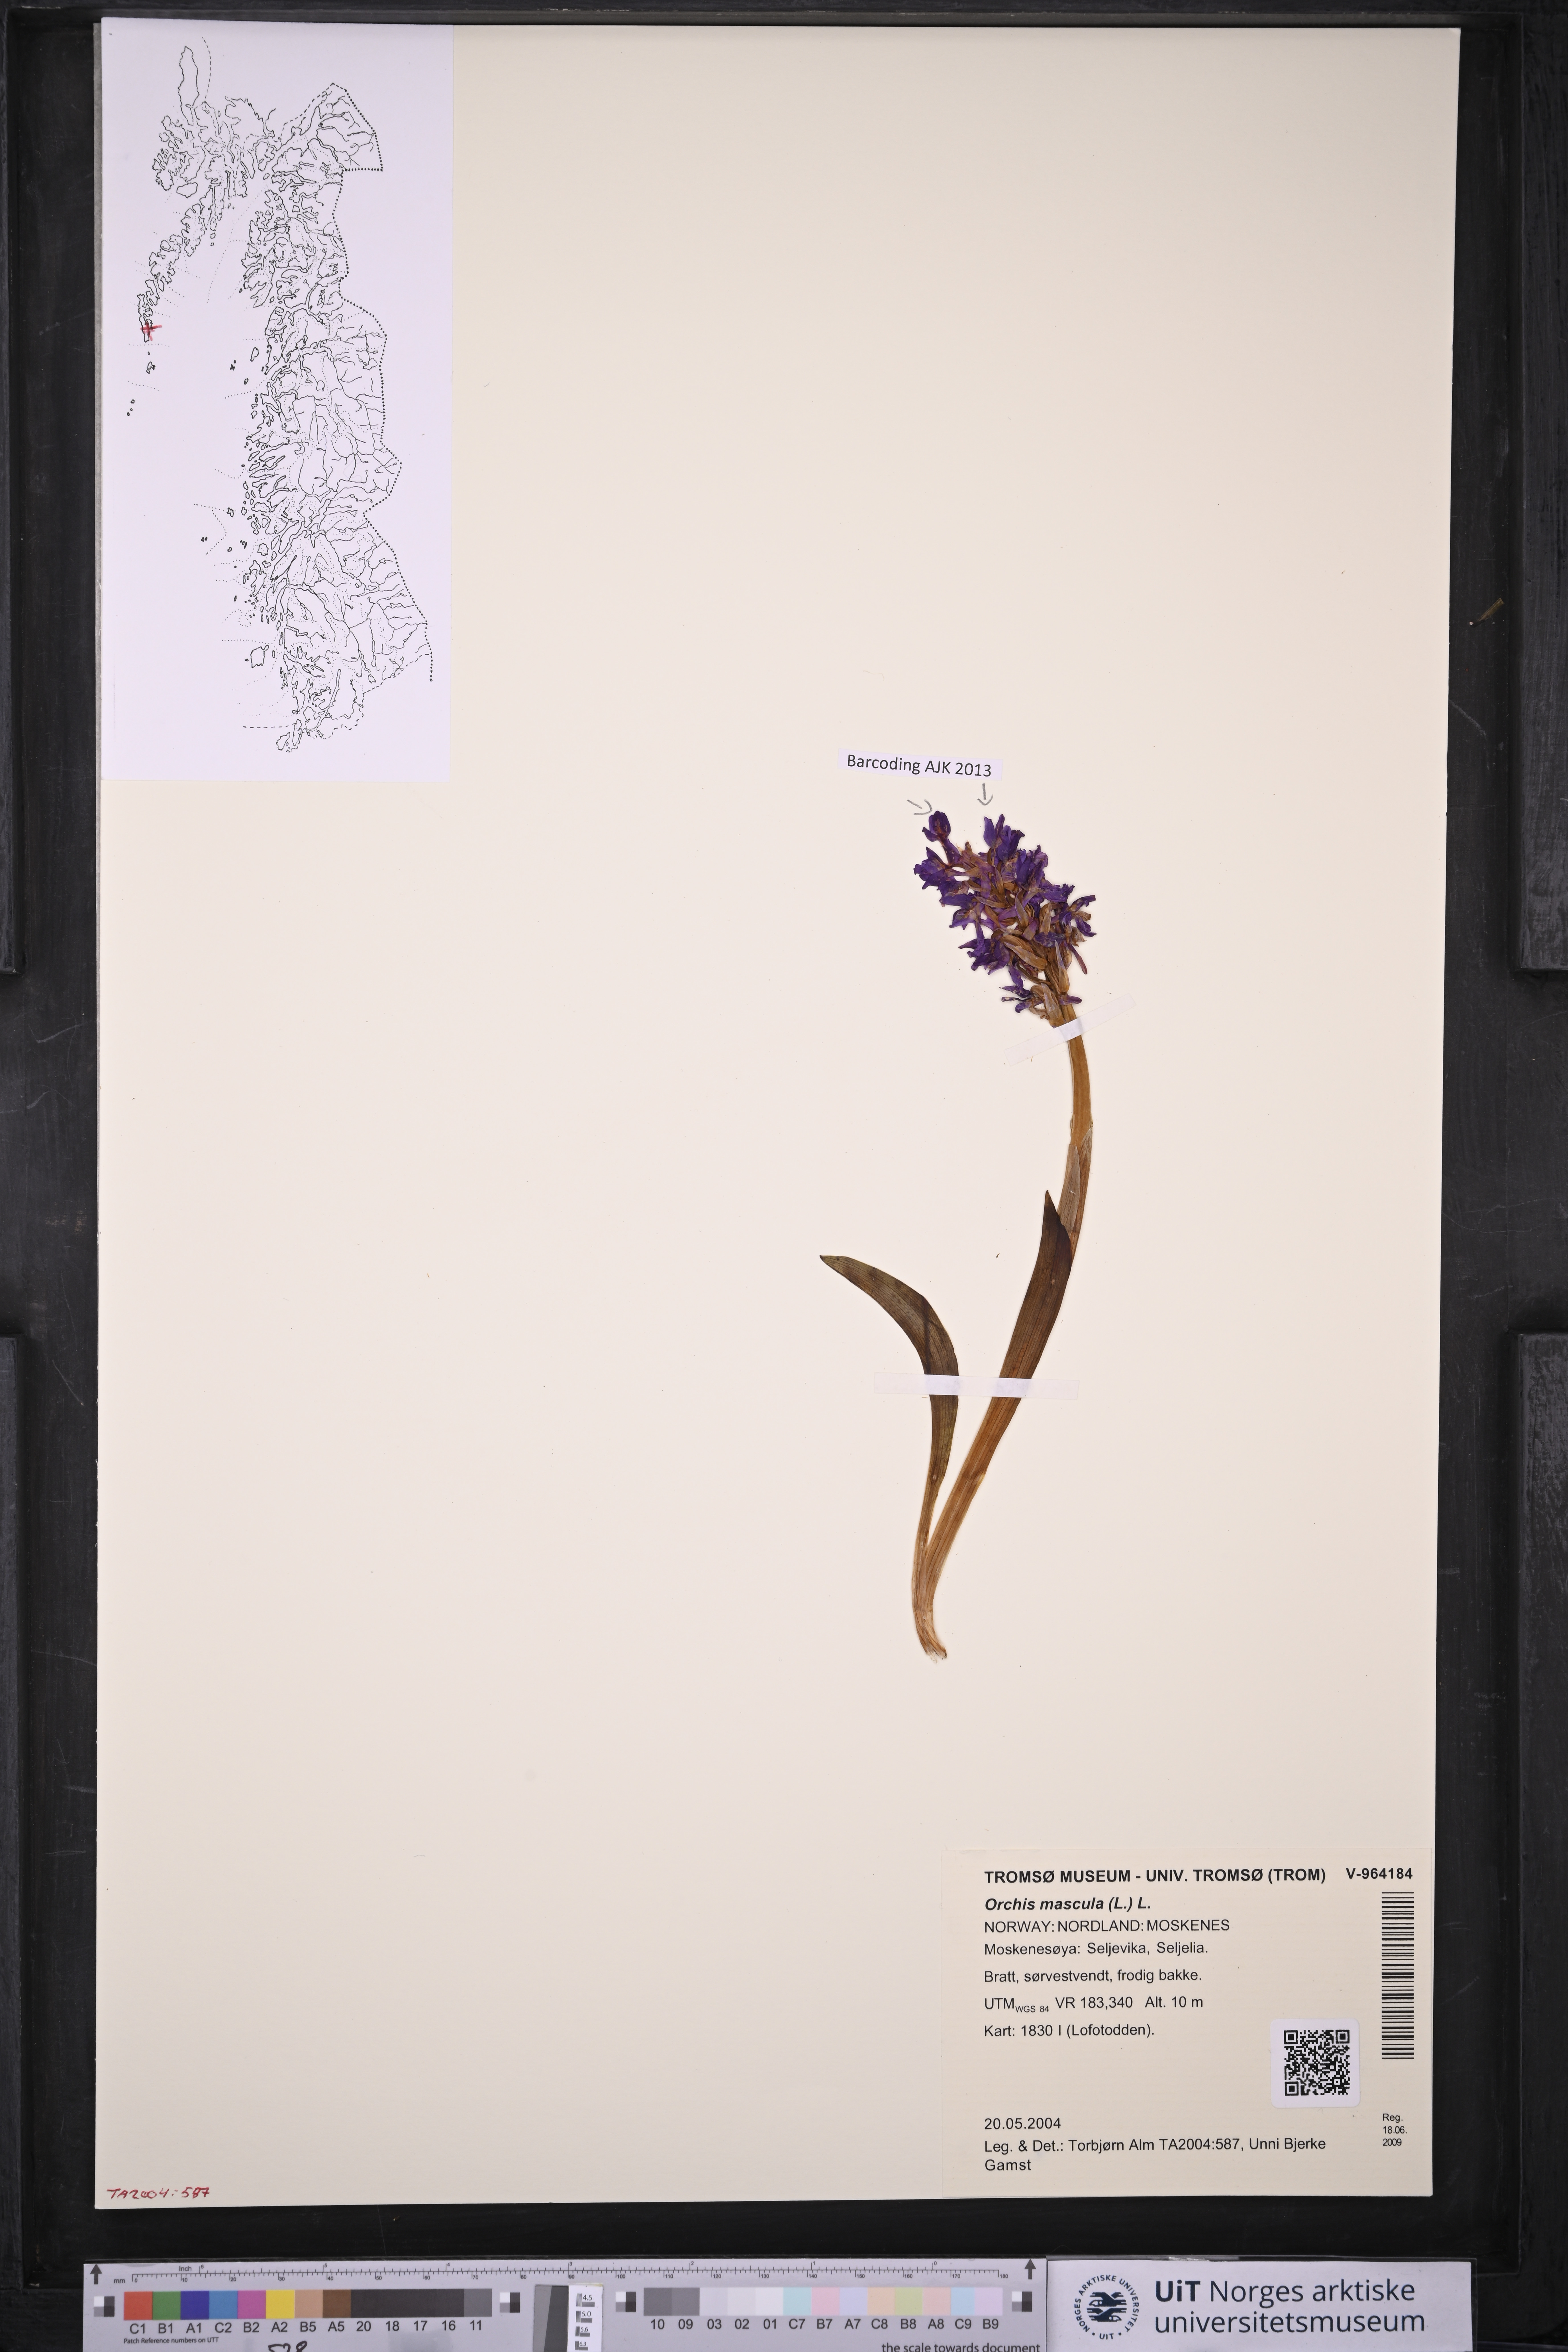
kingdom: Plantae
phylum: Tracheophyta
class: Liliopsida
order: Asparagales
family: Orchidaceae
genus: Orchis
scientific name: Orchis mascula
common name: Early-purple orchid
